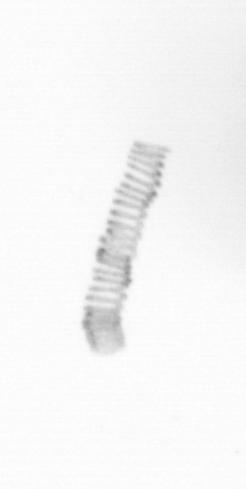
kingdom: Chromista
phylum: Ochrophyta
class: Bacillariophyceae
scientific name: Bacillariophyceae
